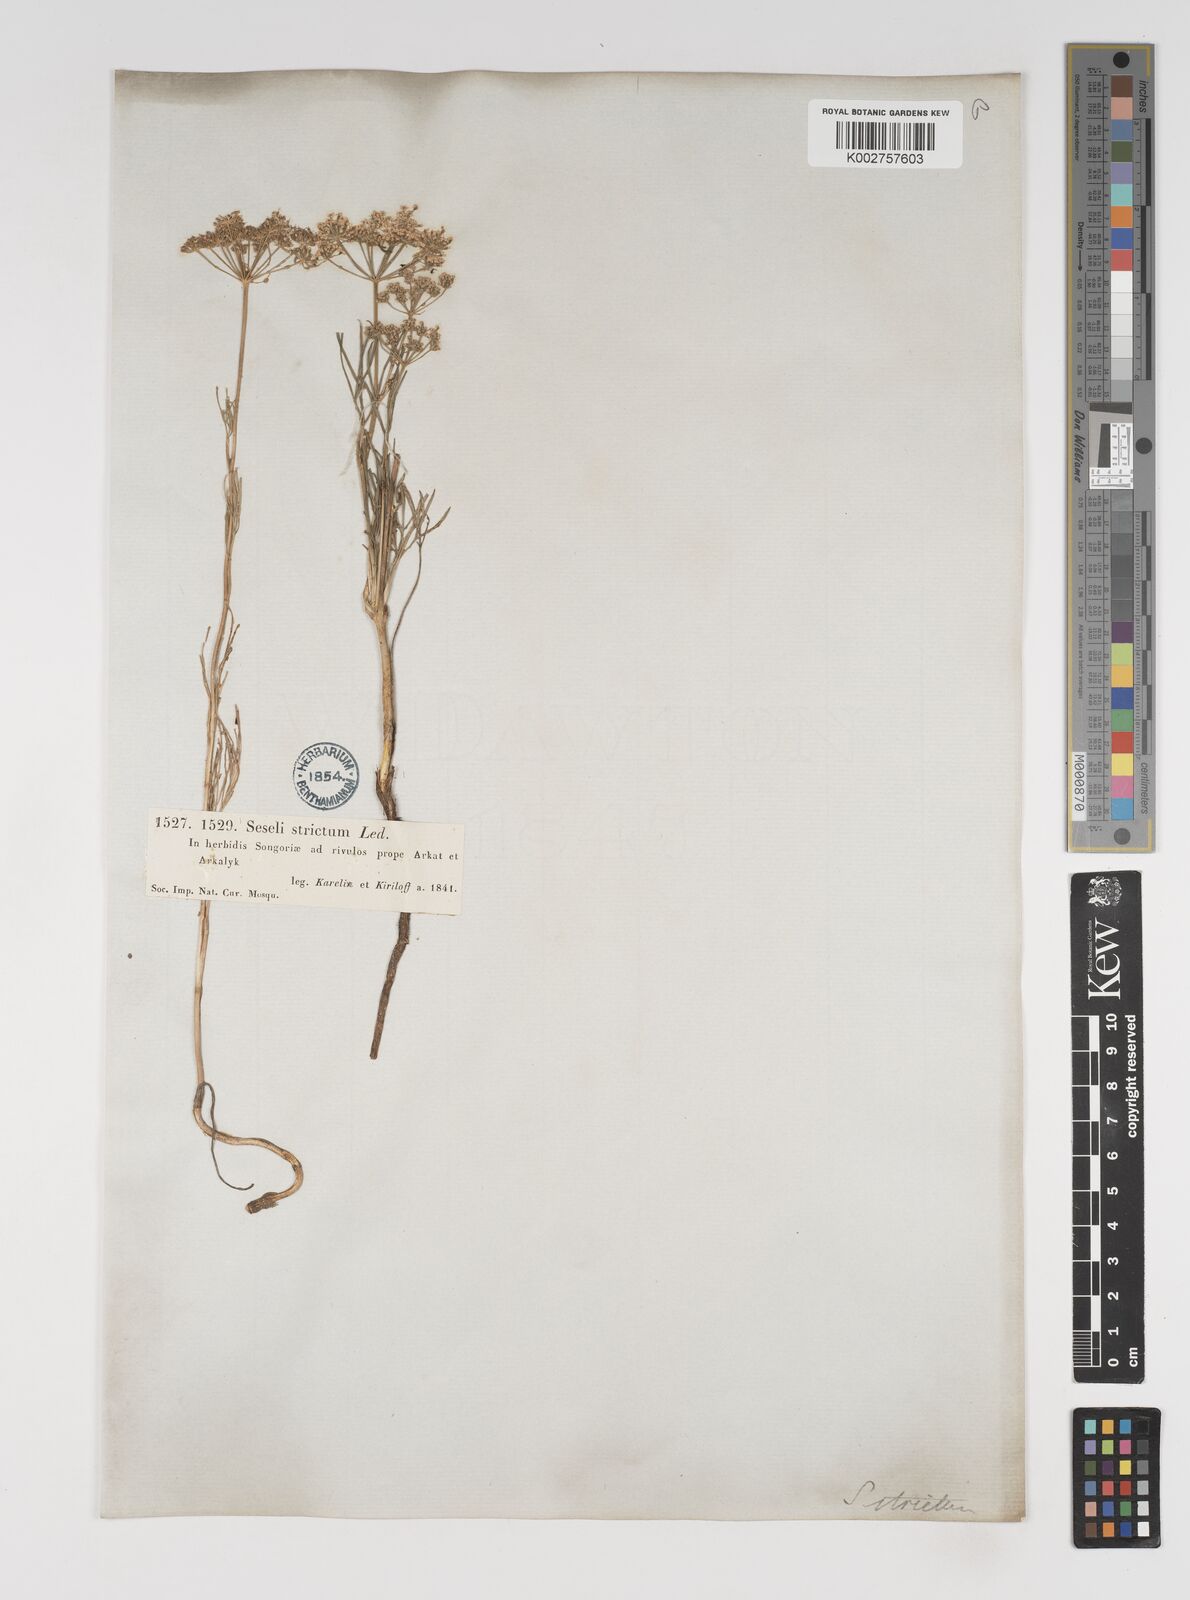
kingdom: Plantae
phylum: Tracheophyta
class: Magnoliopsida
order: Apiales
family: Apiaceae
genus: Seseli
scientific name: Seseli strictum
